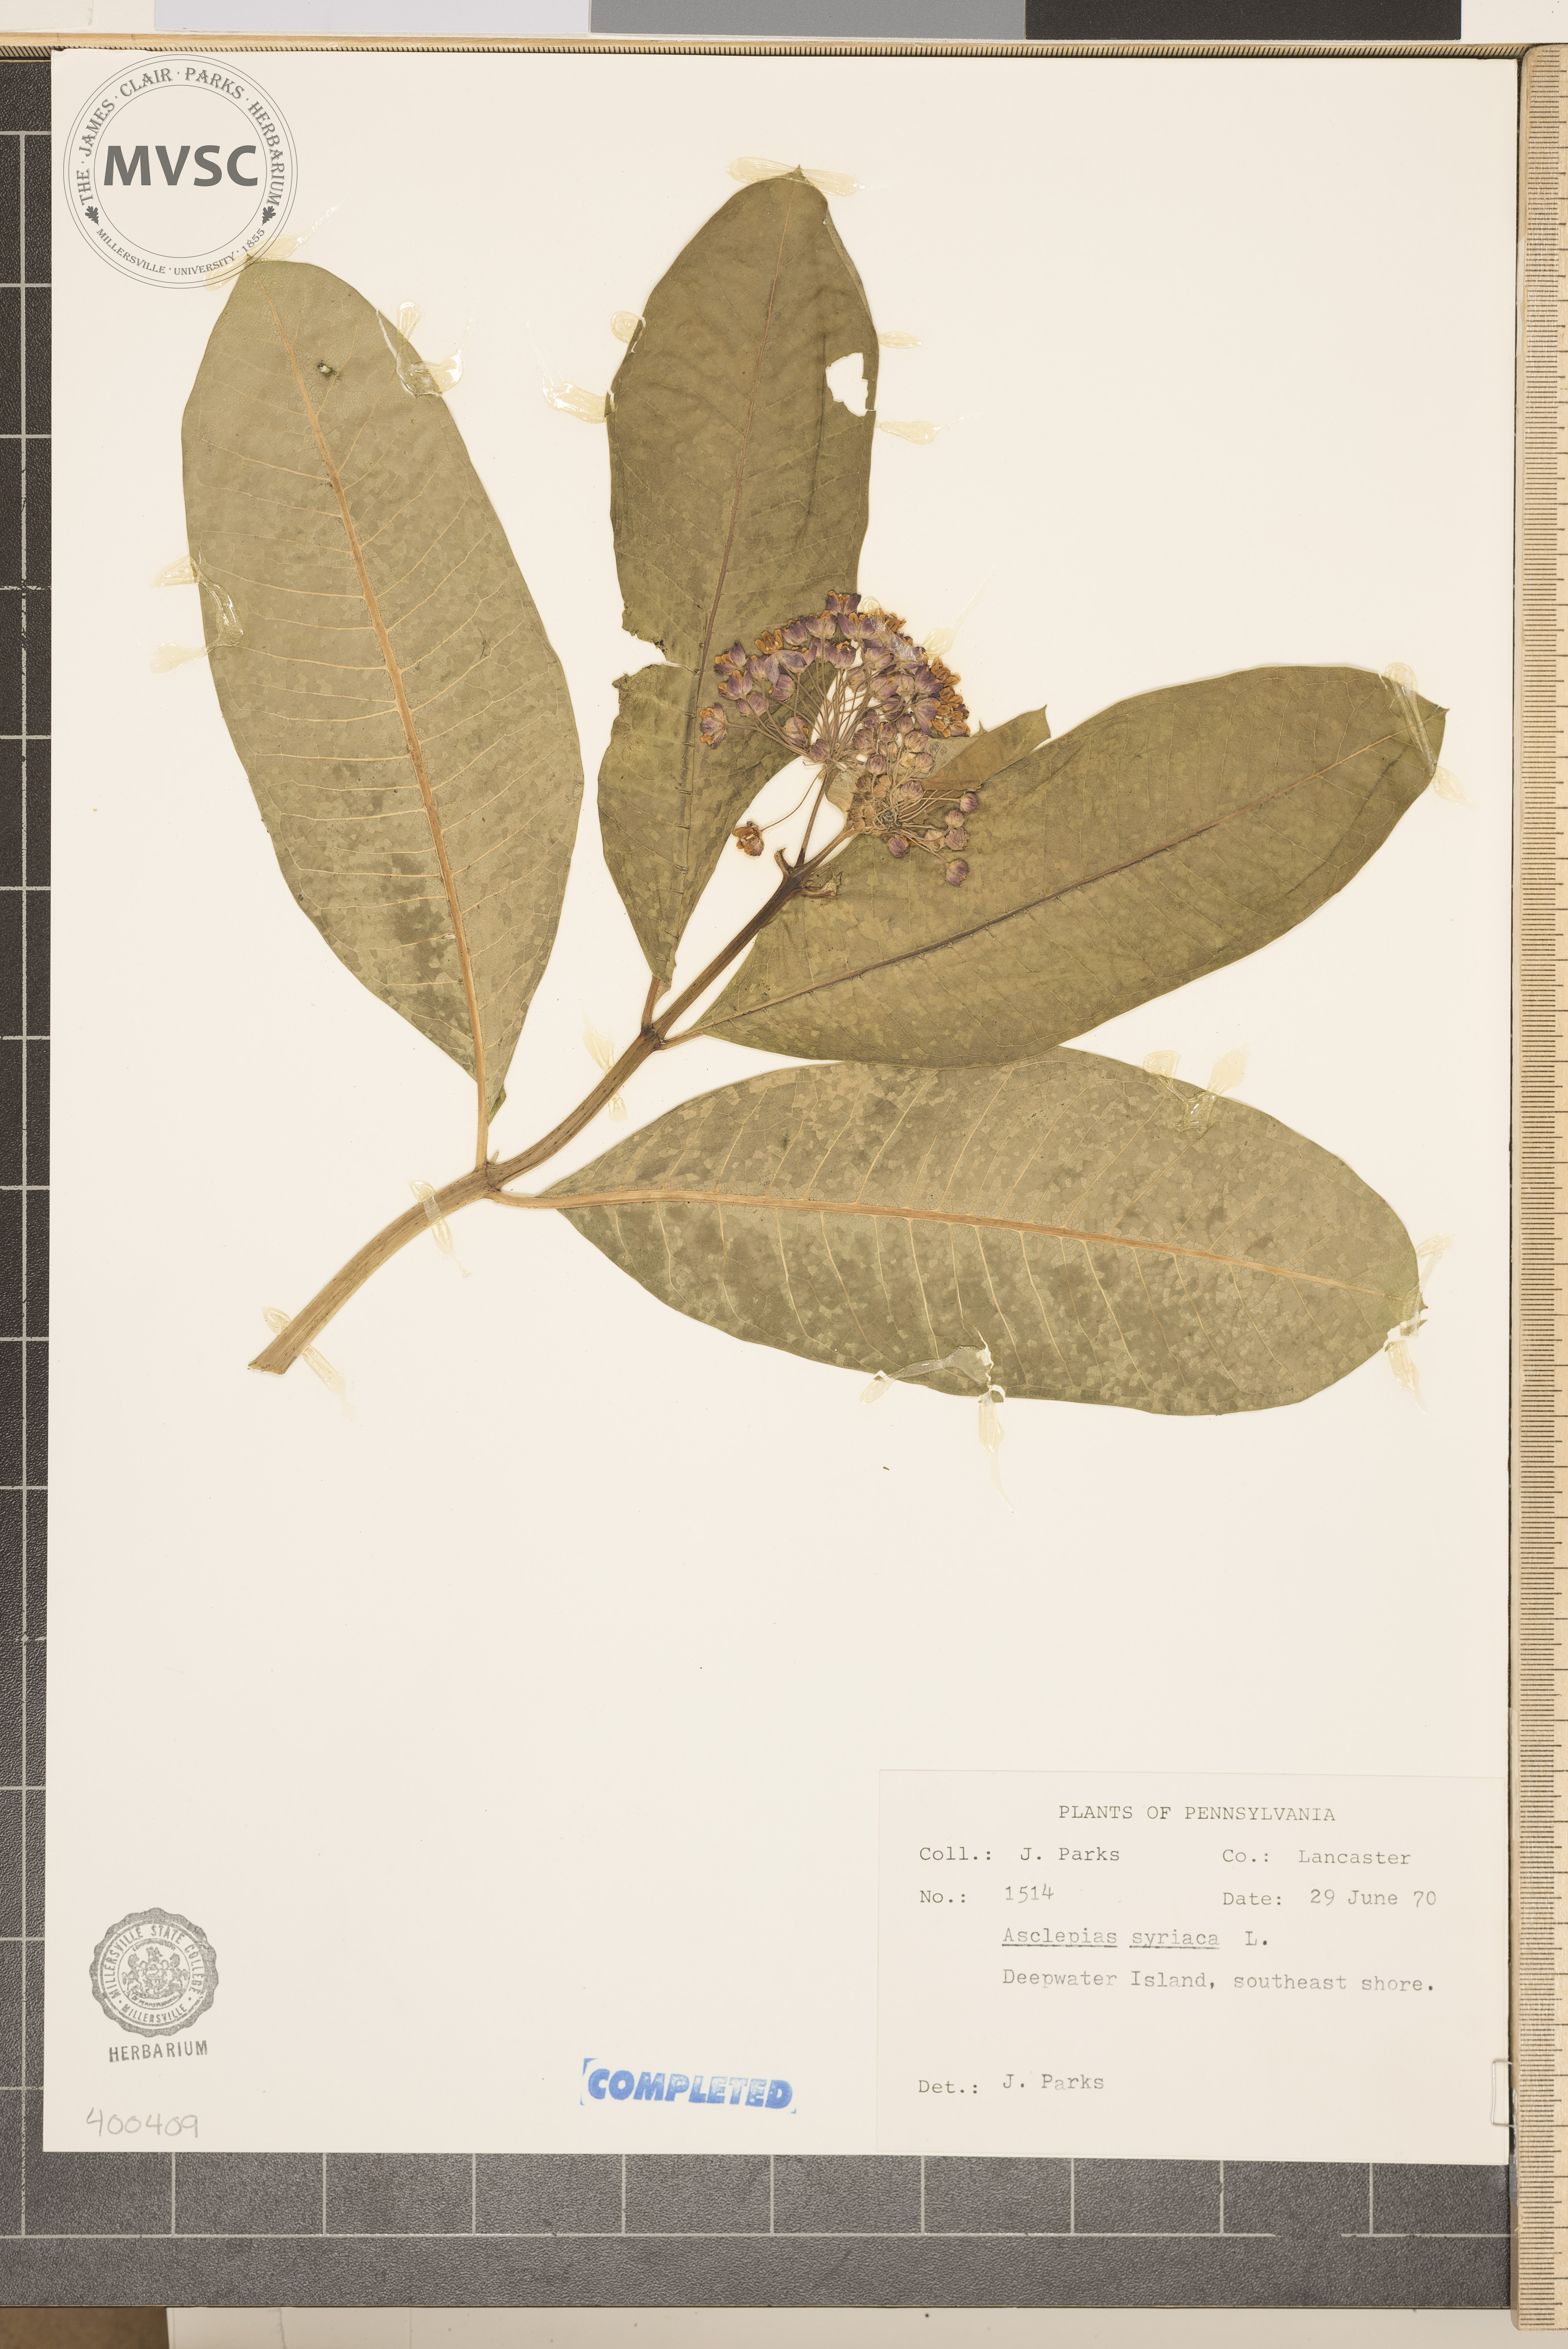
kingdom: Plantae
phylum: Tracheophyta
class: Magnoliopsida
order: Gentianales
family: Apocynaceae
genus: Asclepias
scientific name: Asclepias syriaca
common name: milkweed
